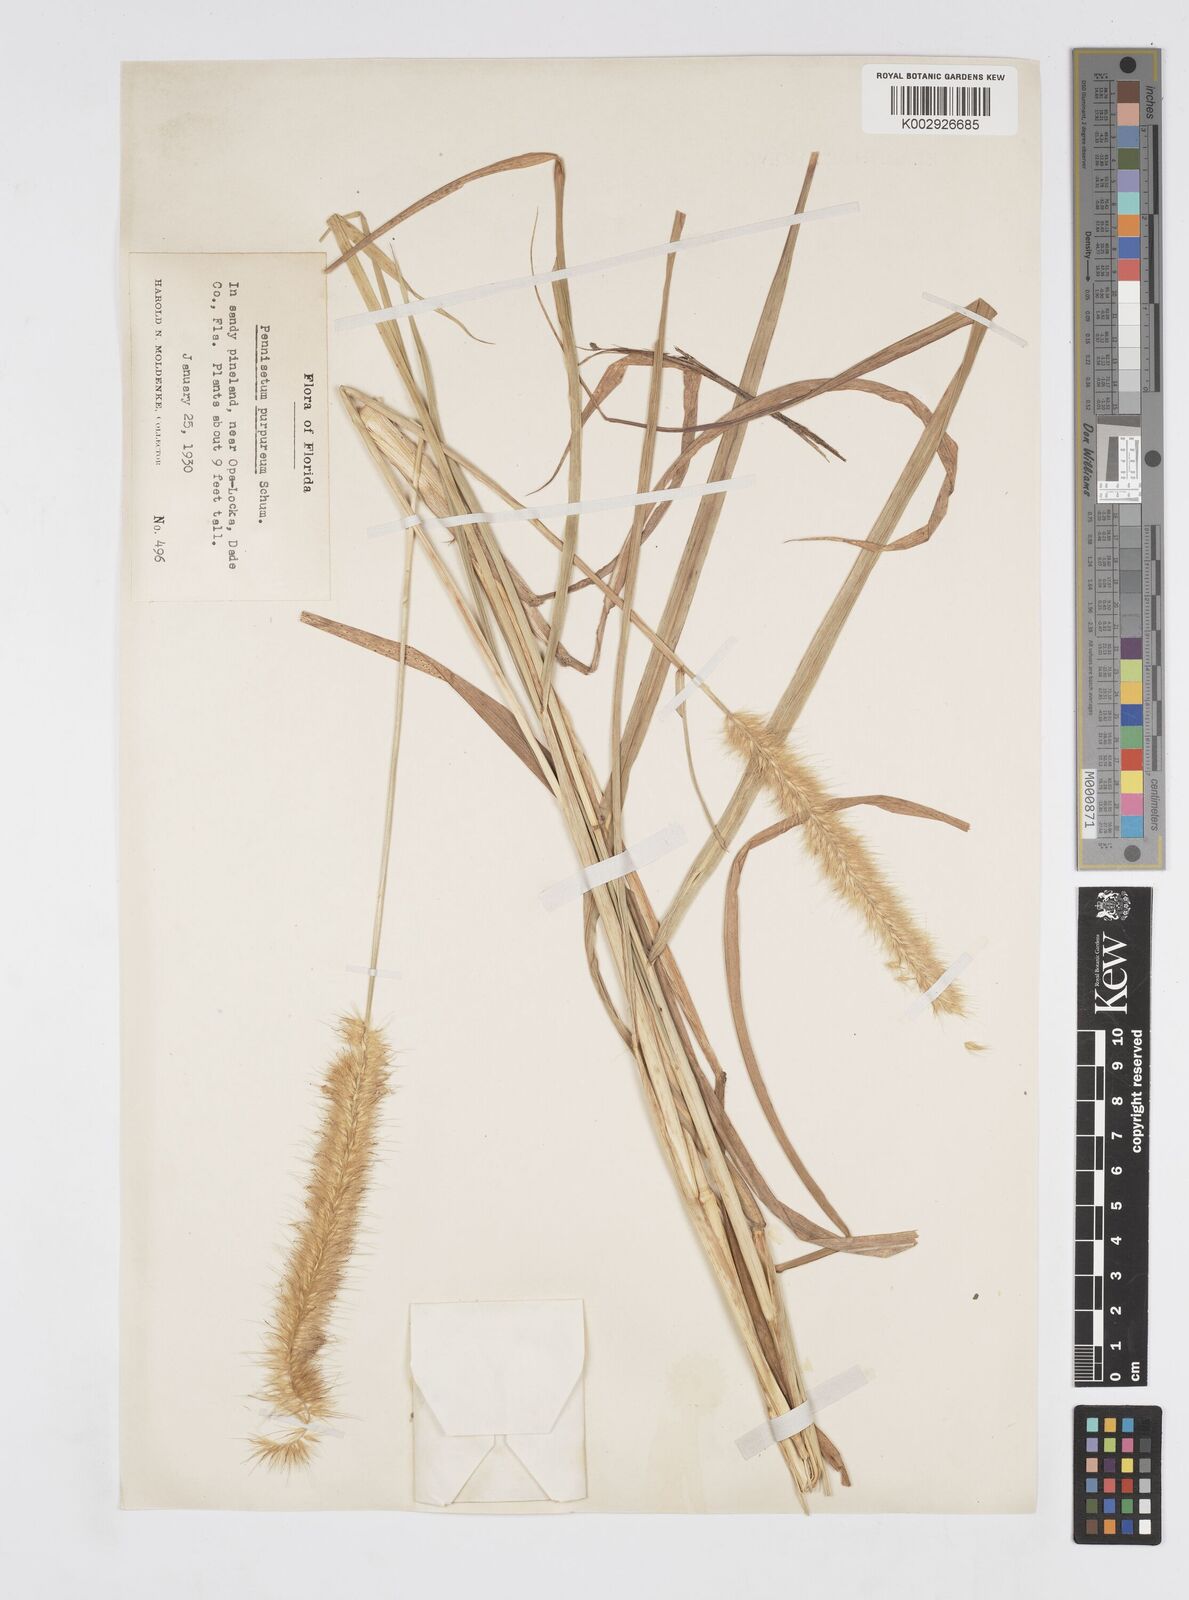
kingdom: Plantae
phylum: Tracheophyta
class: Liliopsida
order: Poales
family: Poaceae
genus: Cenchrus
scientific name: Cenchrus purpureus
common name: Elephant grass
